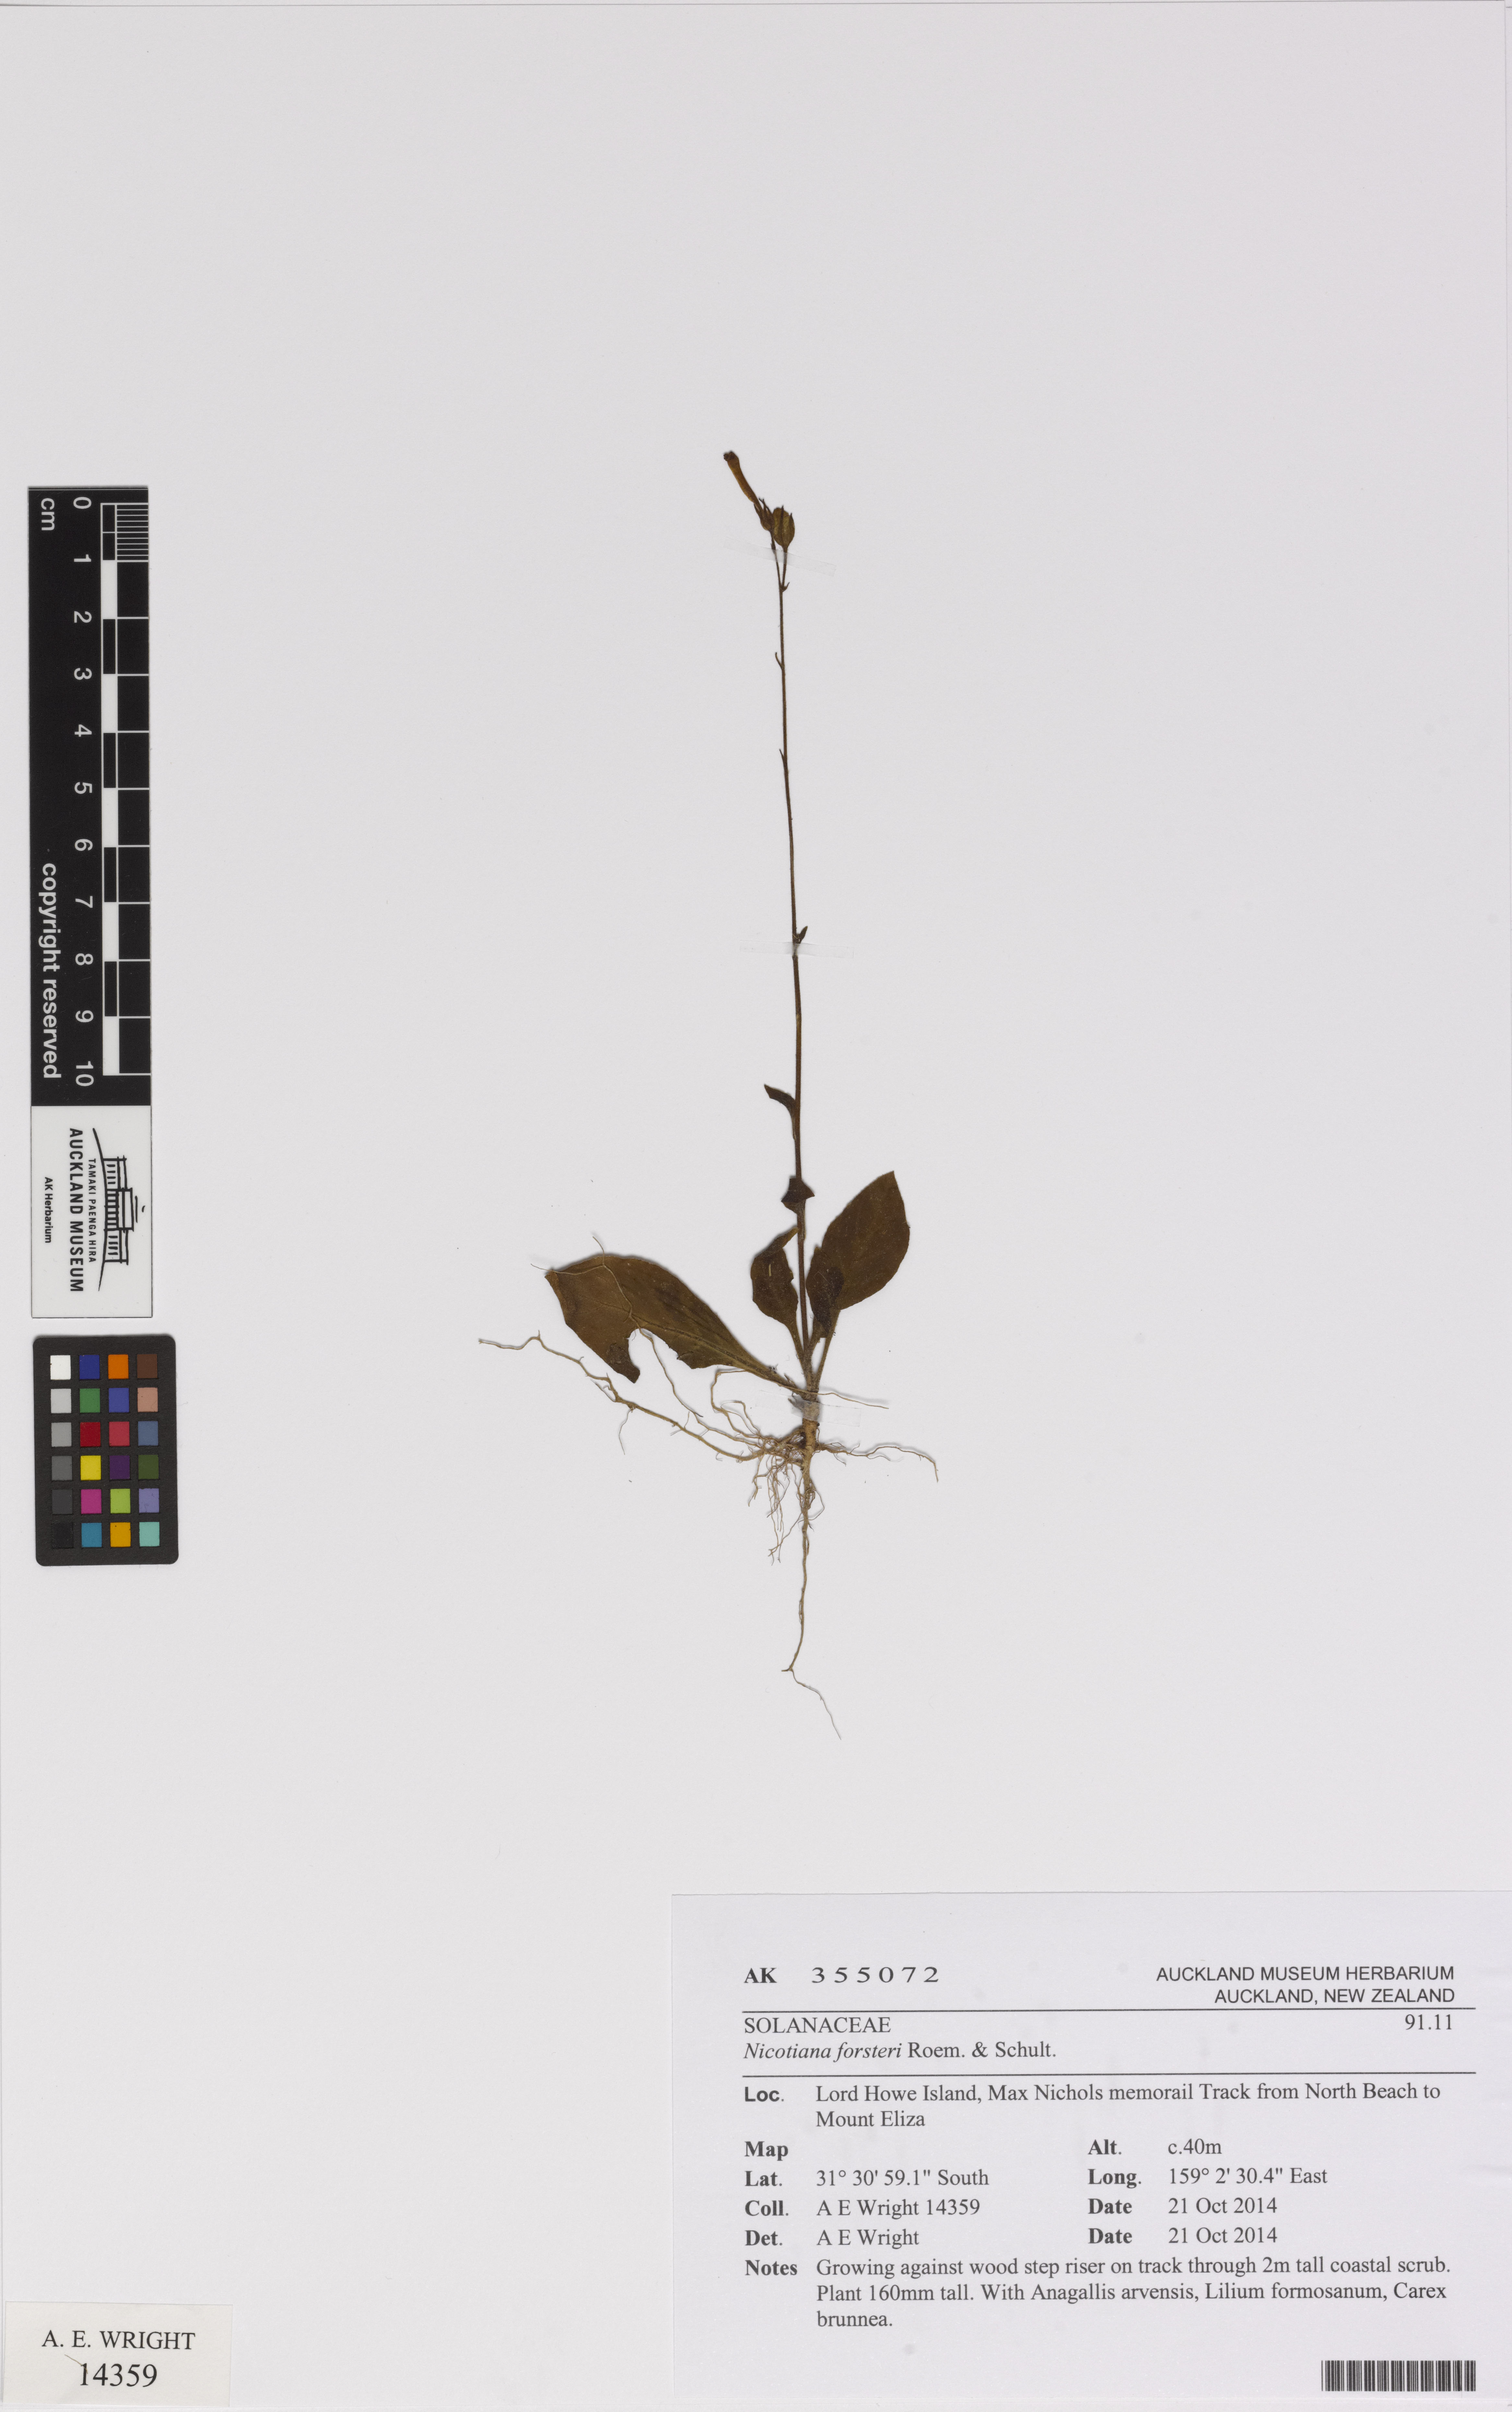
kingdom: Plantae
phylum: Tracheophyta
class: Magnoliopsida
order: Solanales
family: Solanaceae
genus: Nicotiana
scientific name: Nicotiana forsteri
